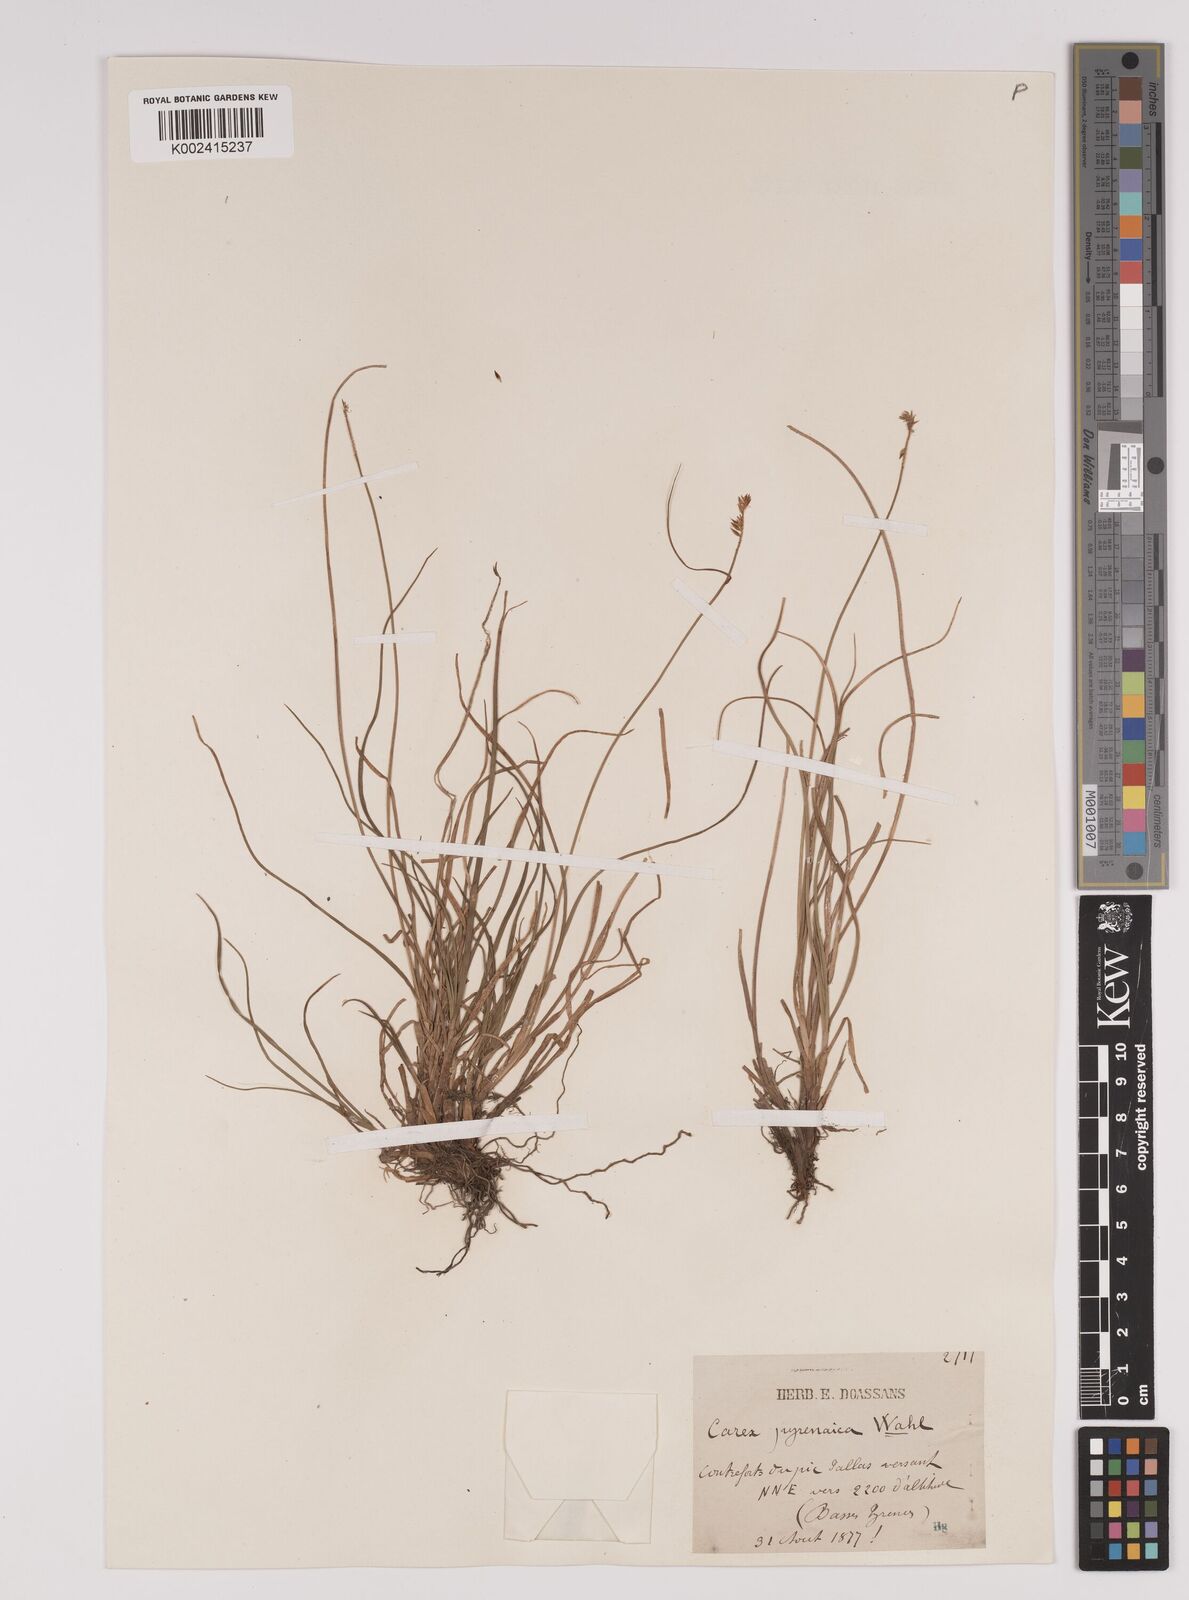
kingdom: Plantae
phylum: Tracheophyta
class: Liliopsida
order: Poales
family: Cyperaceae
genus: Carex
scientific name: Carex pyrenaica
